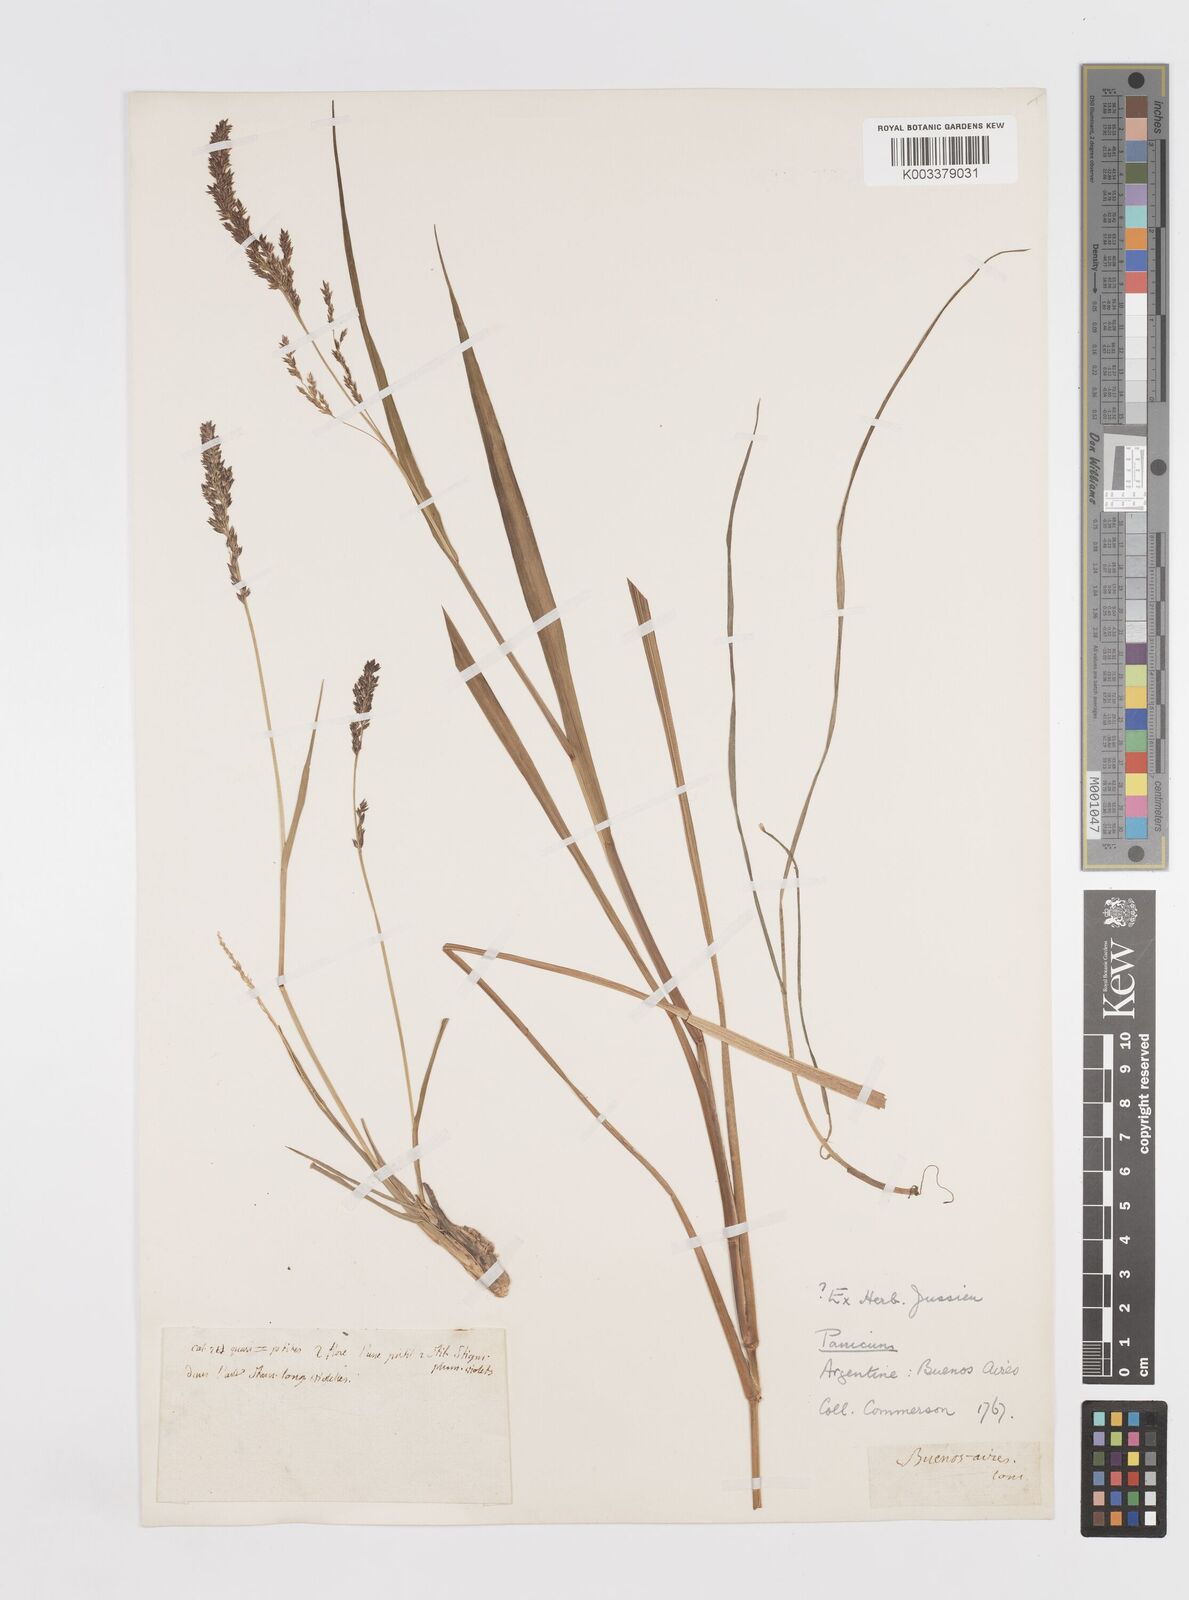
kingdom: Plantae
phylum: Tracheophyta
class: Liliopsida
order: Poales
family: Poaceae
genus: Steinchisma
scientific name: Steinchisma decipiens
